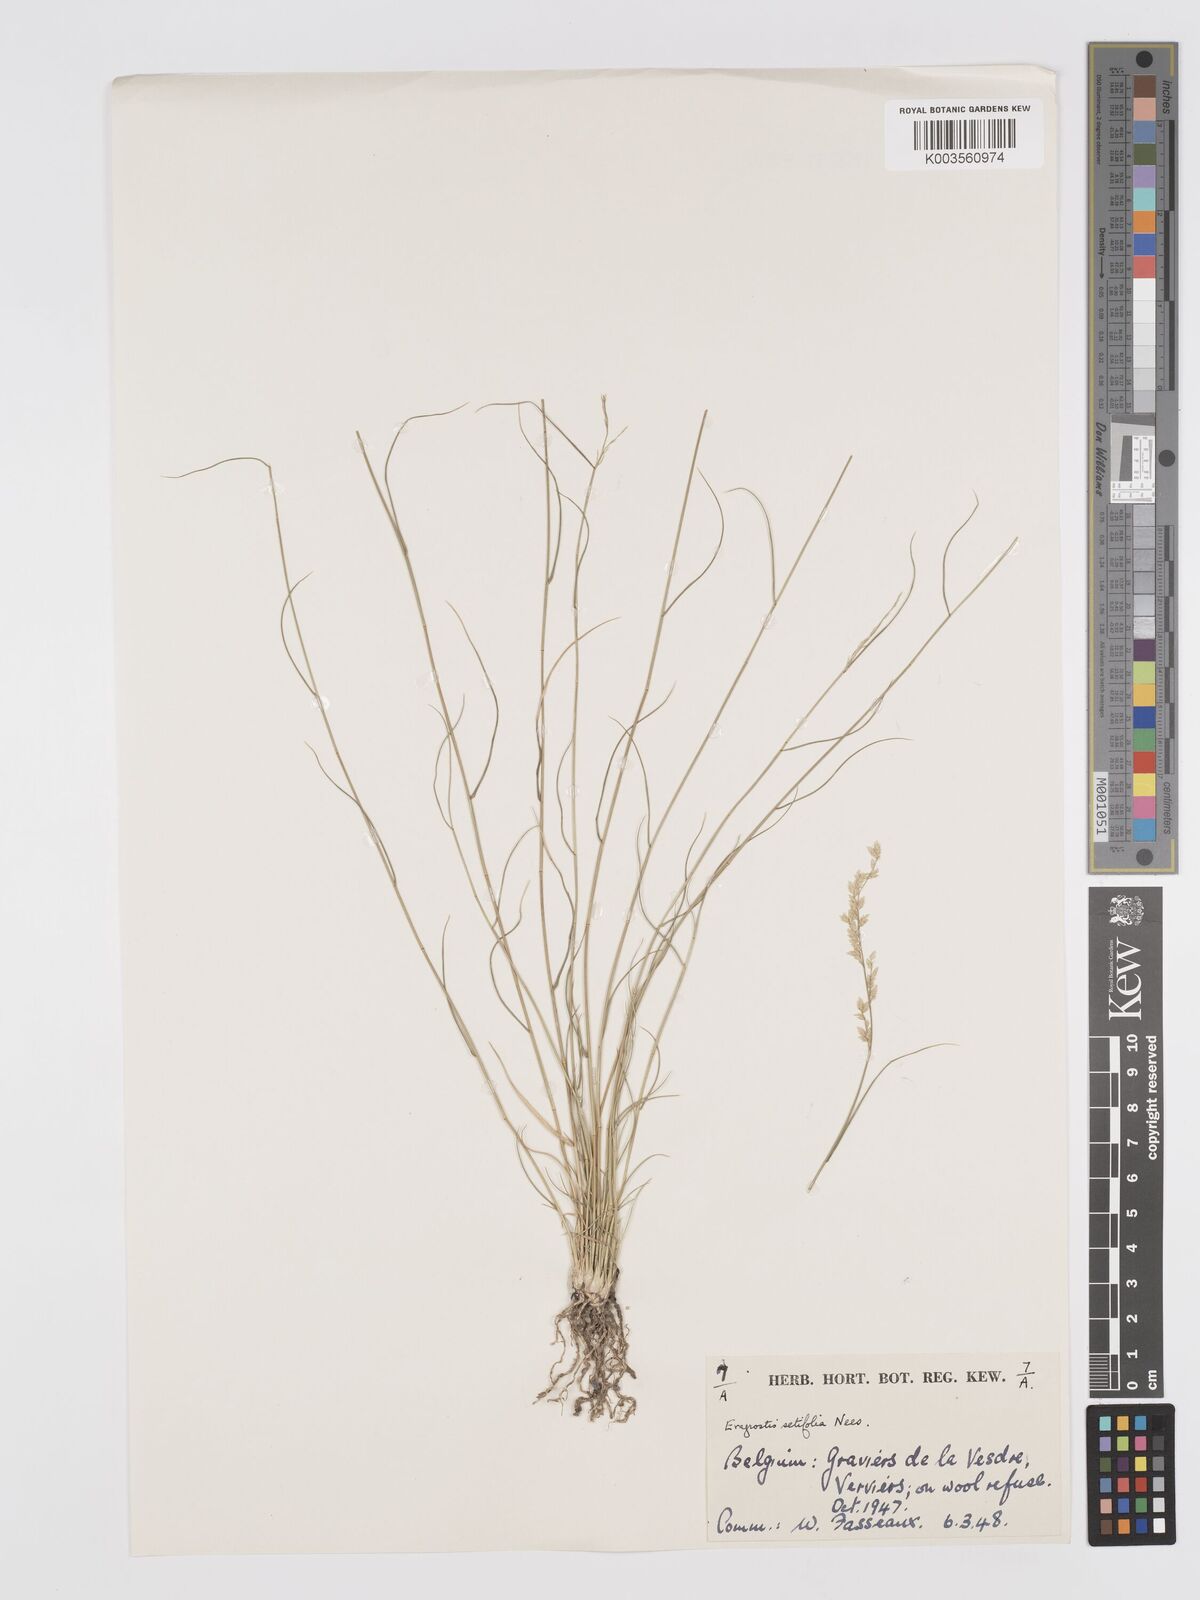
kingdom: Plantae
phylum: Tracheophyta
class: Liliopsida
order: Poales
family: Poaceae
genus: Eragrostis
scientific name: Eragrostis setifolia
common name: Bristleleaf lovegrass
